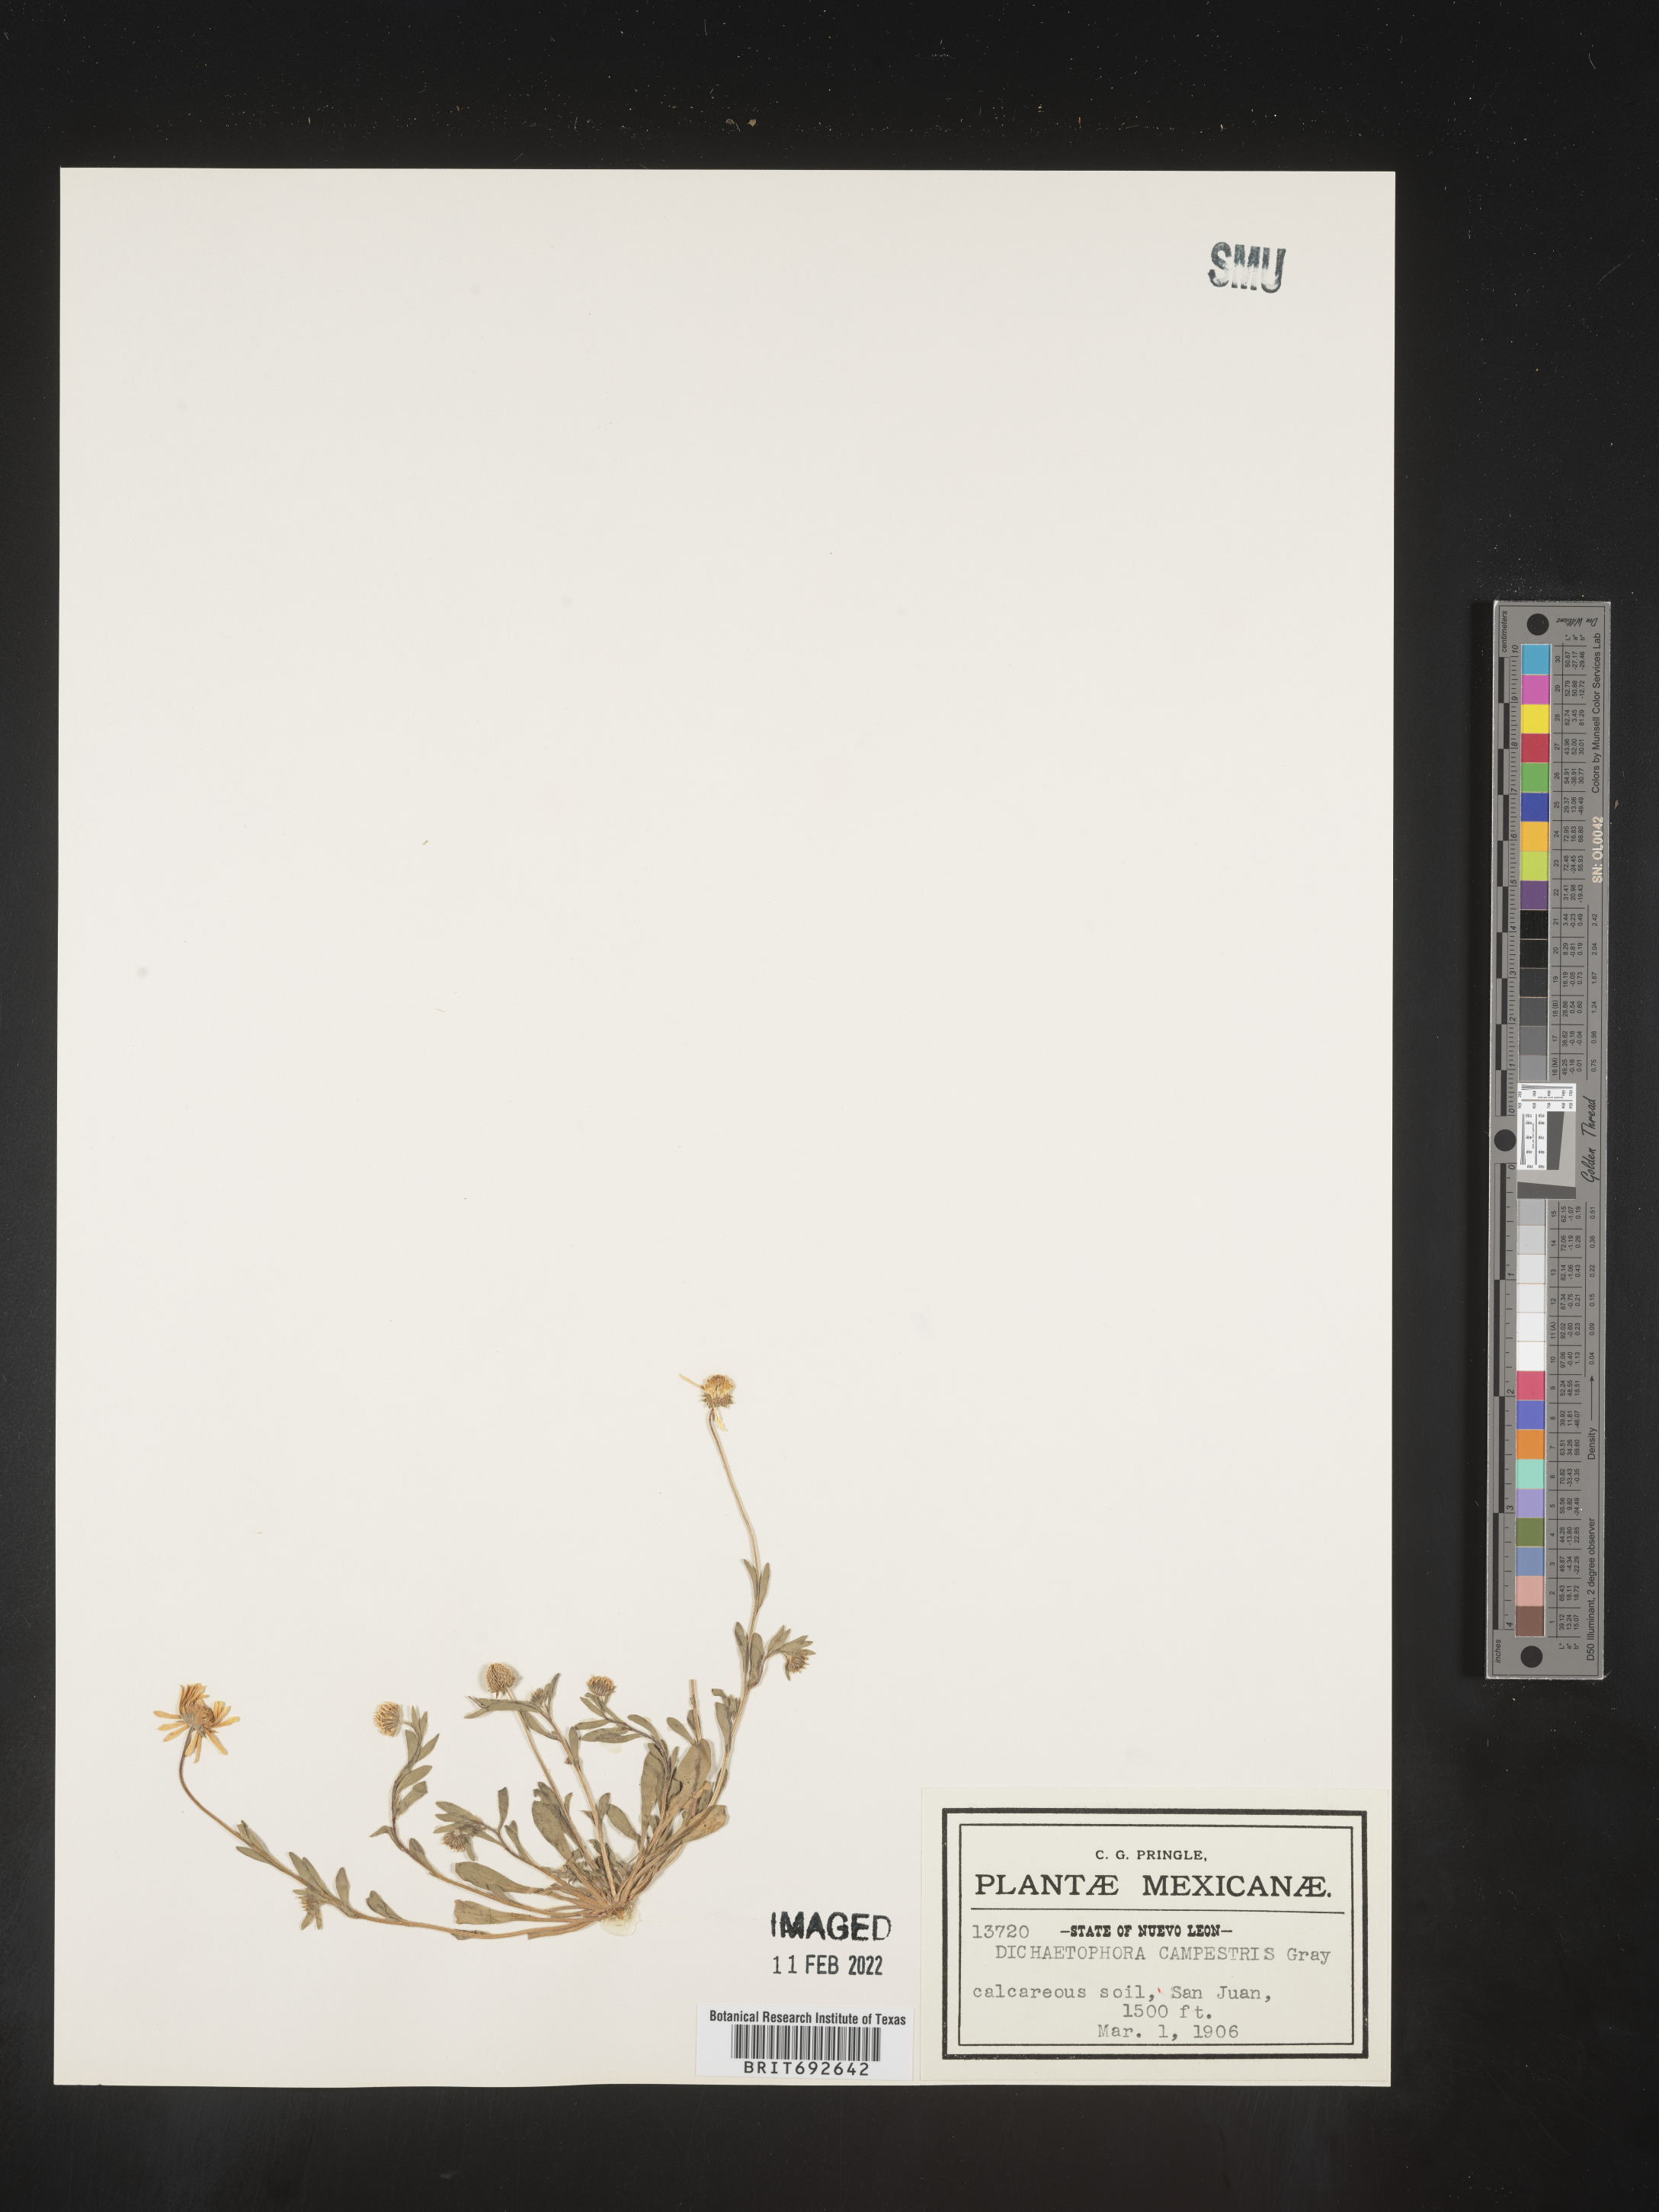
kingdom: Plantae
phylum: Tracheophyta
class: Magnoliopsida
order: Asterales
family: Asteraceae
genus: Dichaetophora
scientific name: Dichaetophora
